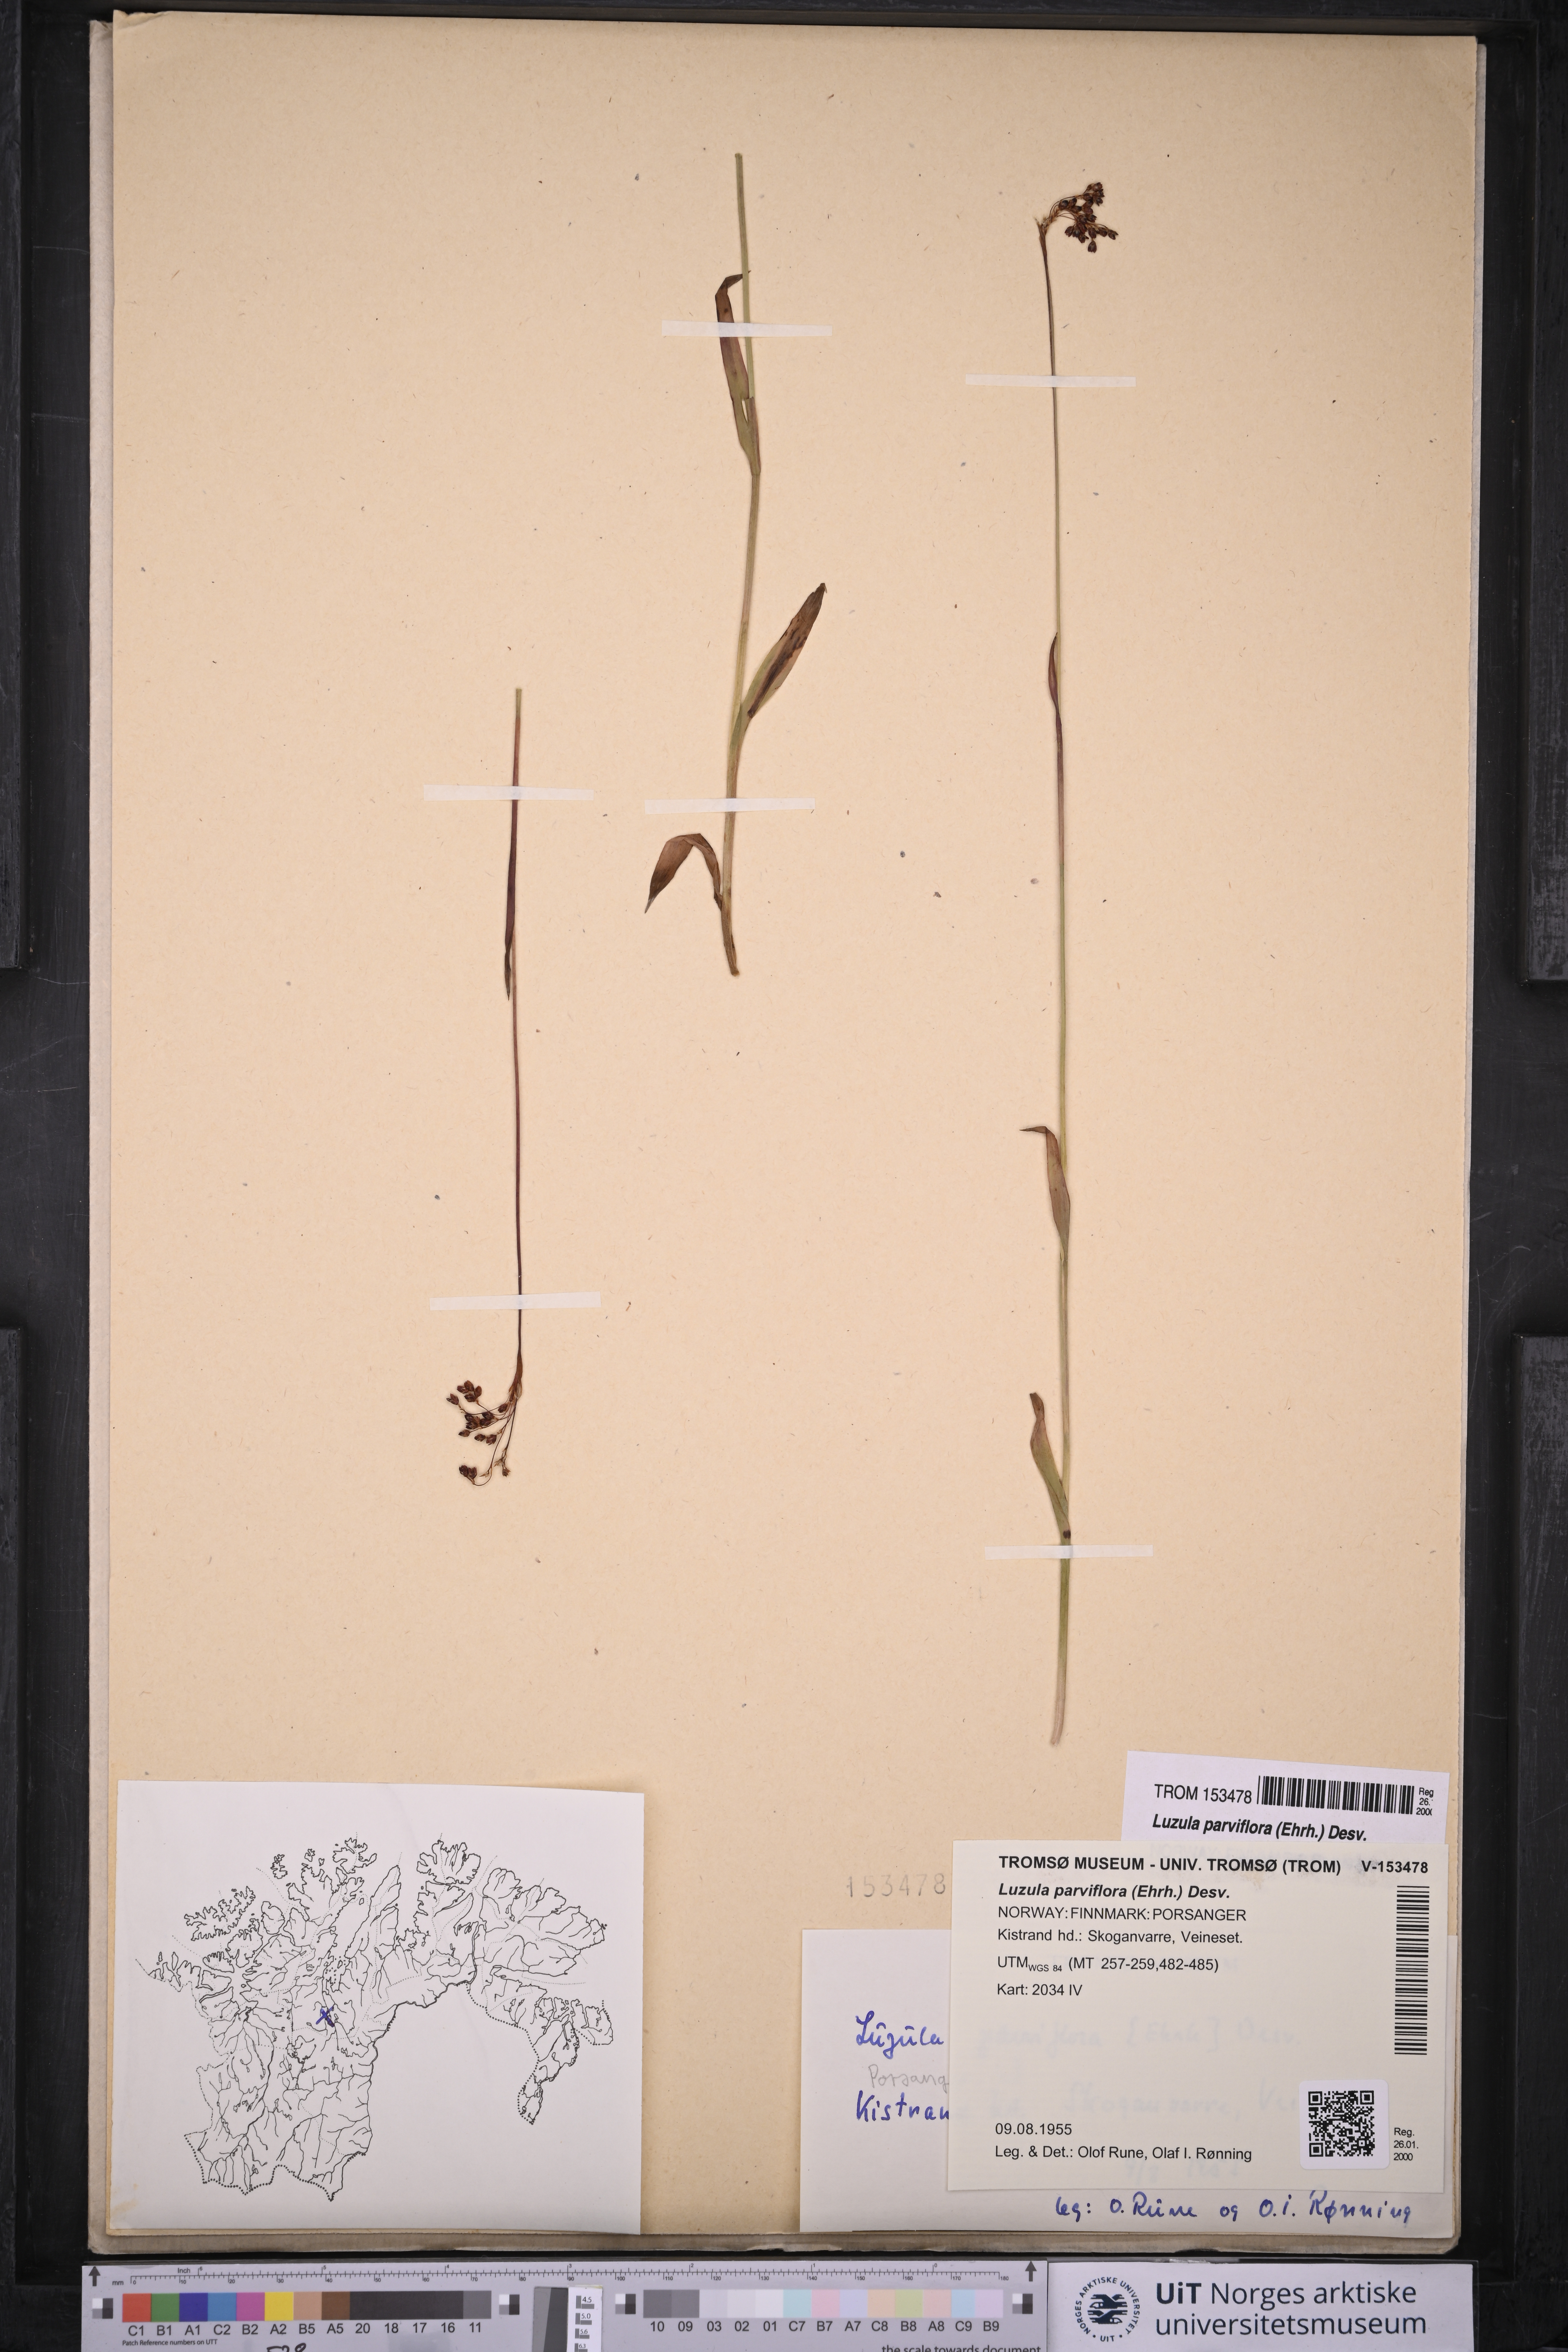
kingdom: Plantae
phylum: Tracheophyta
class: Liliopsida
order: Poales
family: Juncaceae
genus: Luzula
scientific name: Luzula parviflora
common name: Millet woodrush
